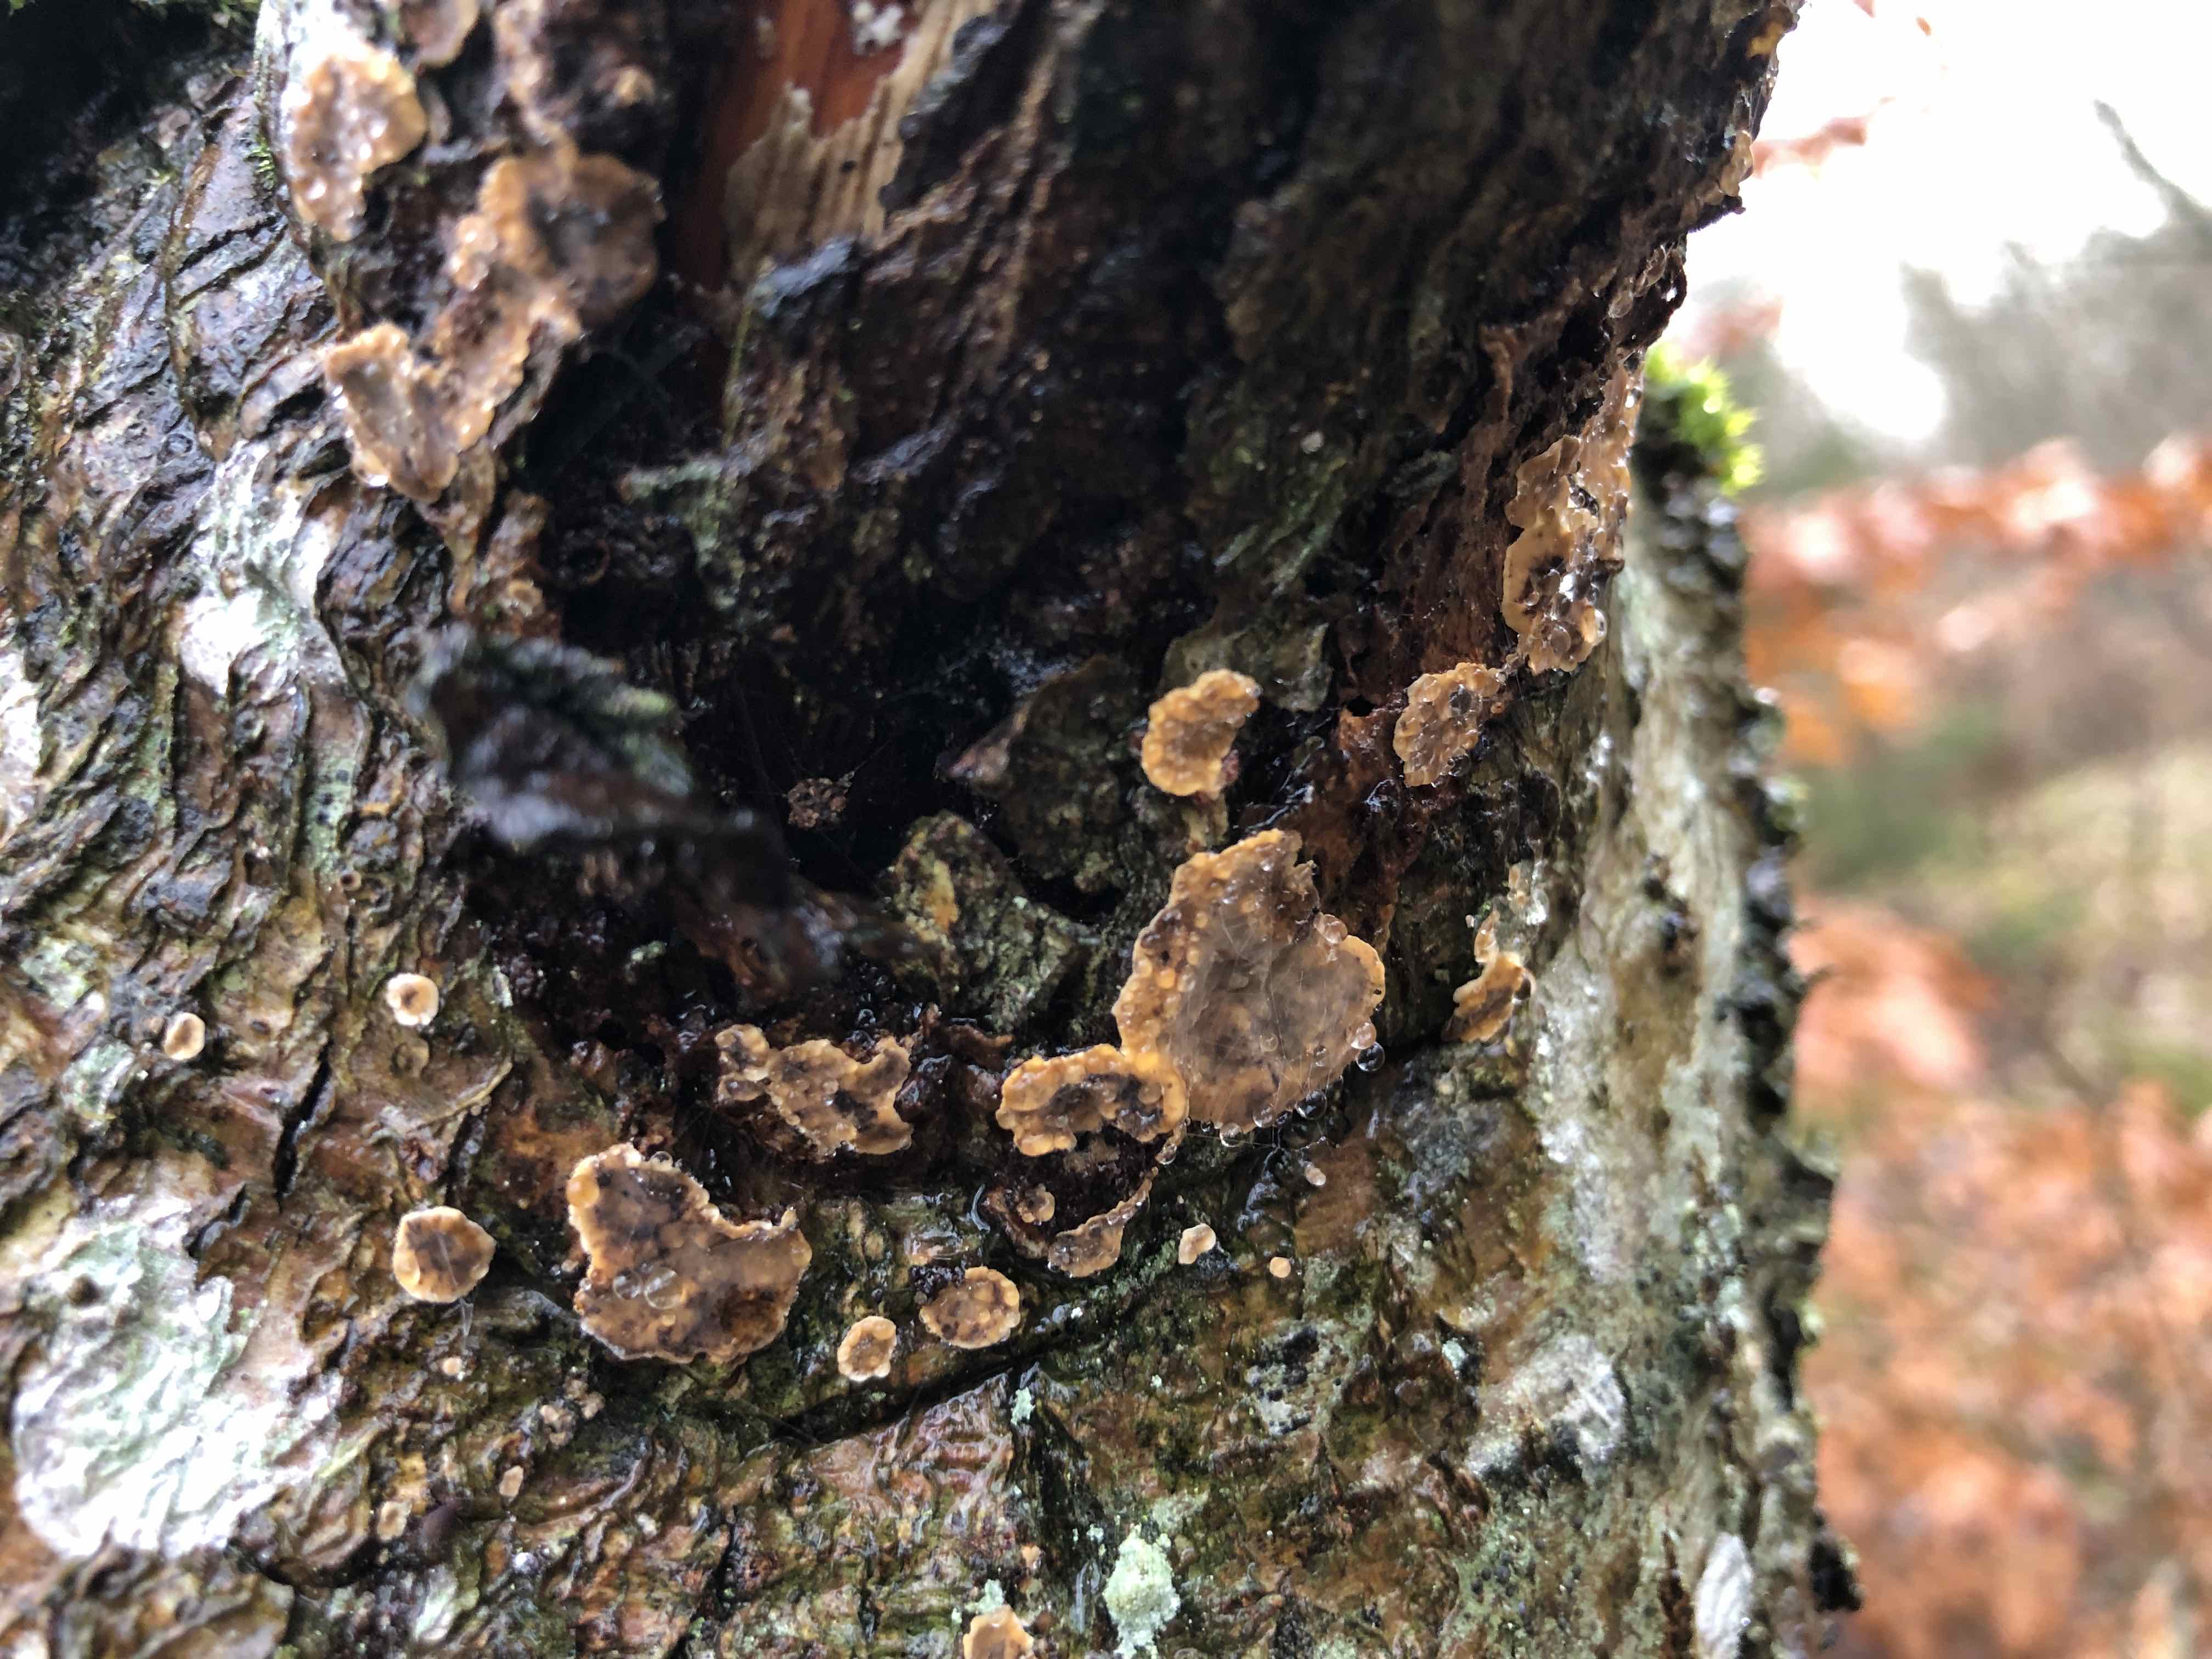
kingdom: Fungi
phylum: Basidiomycota
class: Agaricomycetes
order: Russulales
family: Stereaceae
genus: Stereum
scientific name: Stereum rugosum
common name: rynket lædersvamp
